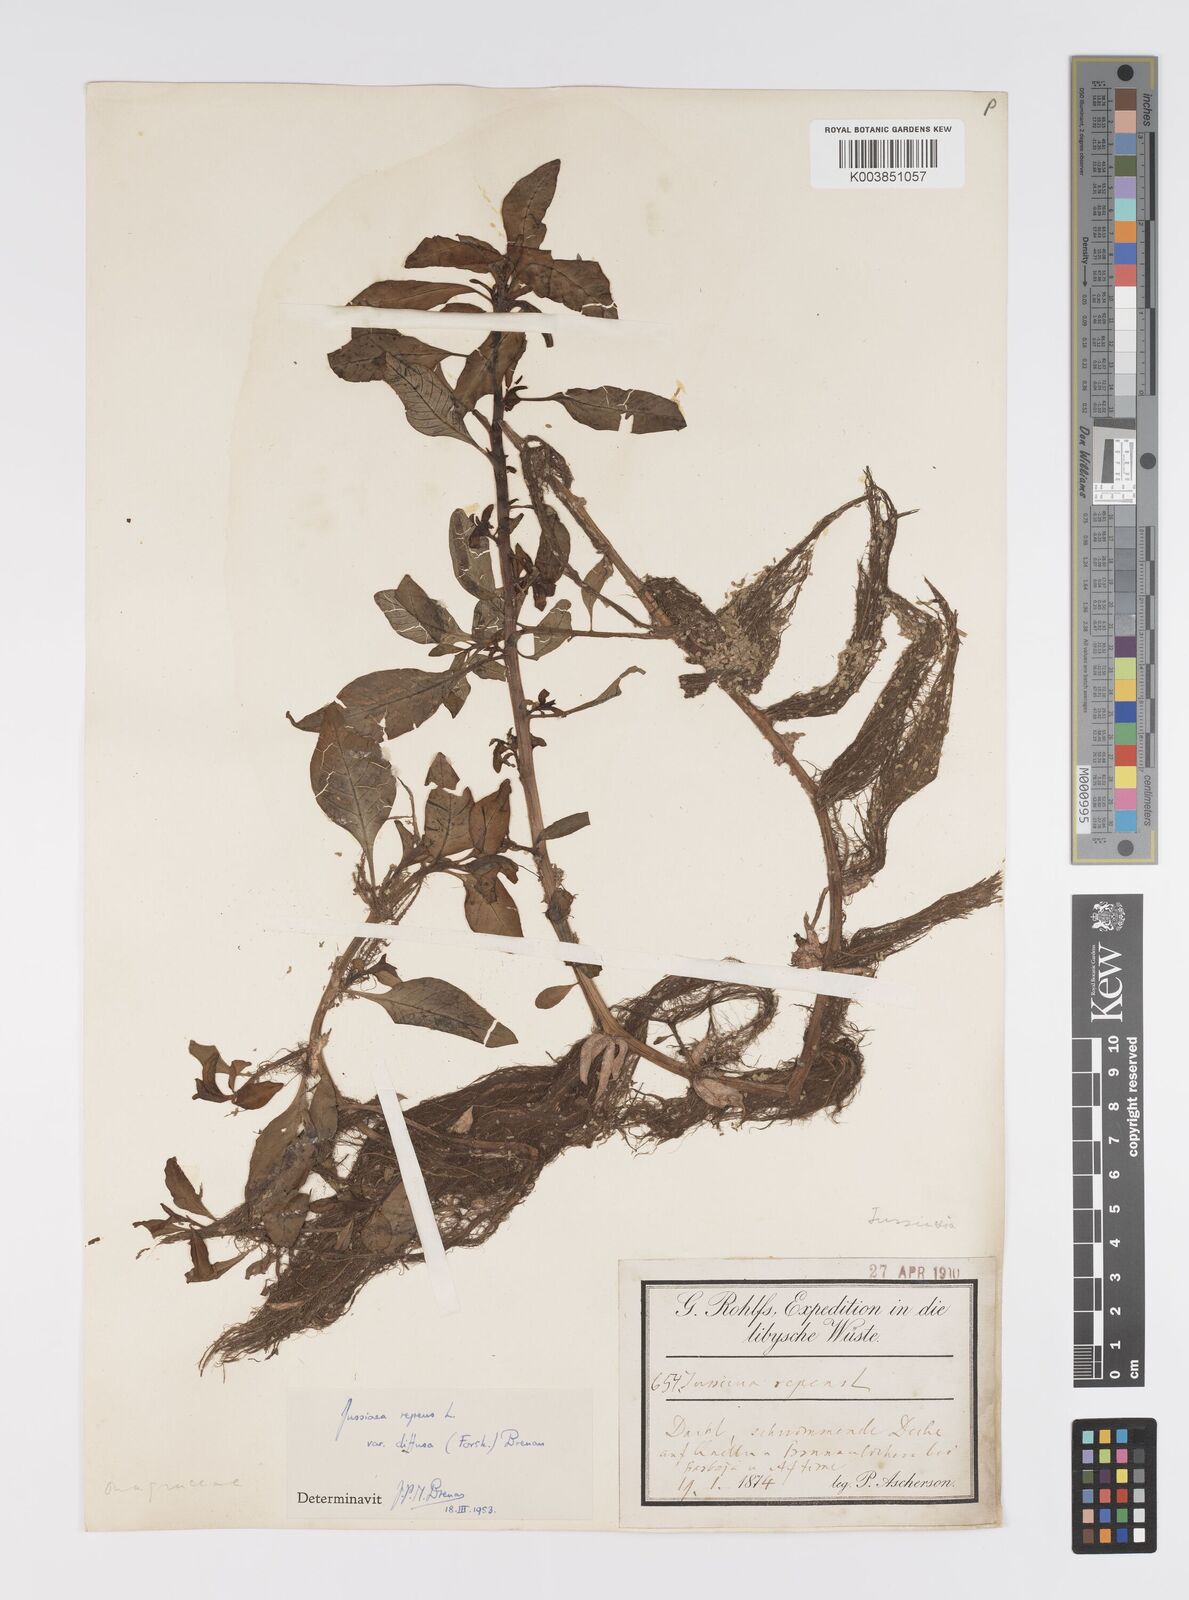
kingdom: Plantae
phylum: Tracheophyta
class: Magnoliopsida
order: Myrtales
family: Onagraceae
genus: Ludwigia
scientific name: Ludwigia adscendens
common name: Creeping water primrose
